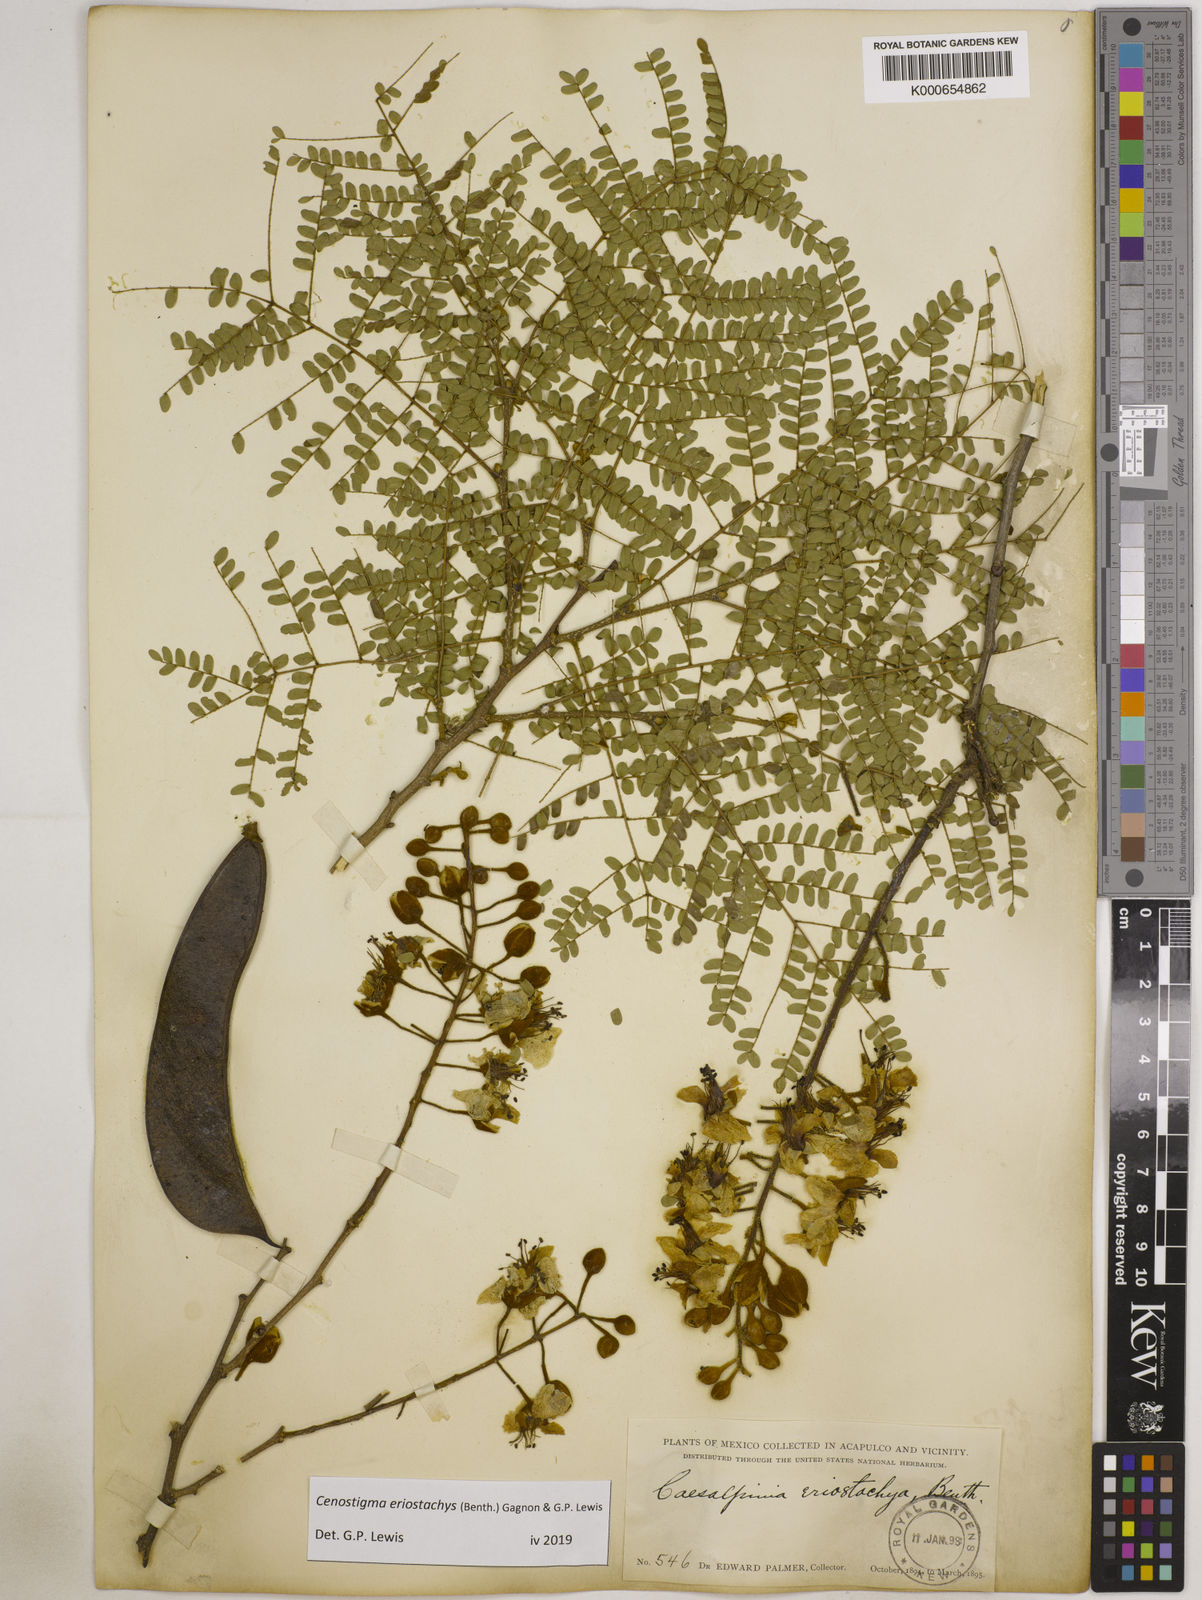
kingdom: Plantae
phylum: Tracheophyta
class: Magnoliopsida
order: Fabales
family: Fabaceae
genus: Cenostigma
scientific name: Cenostigma eriostachys
